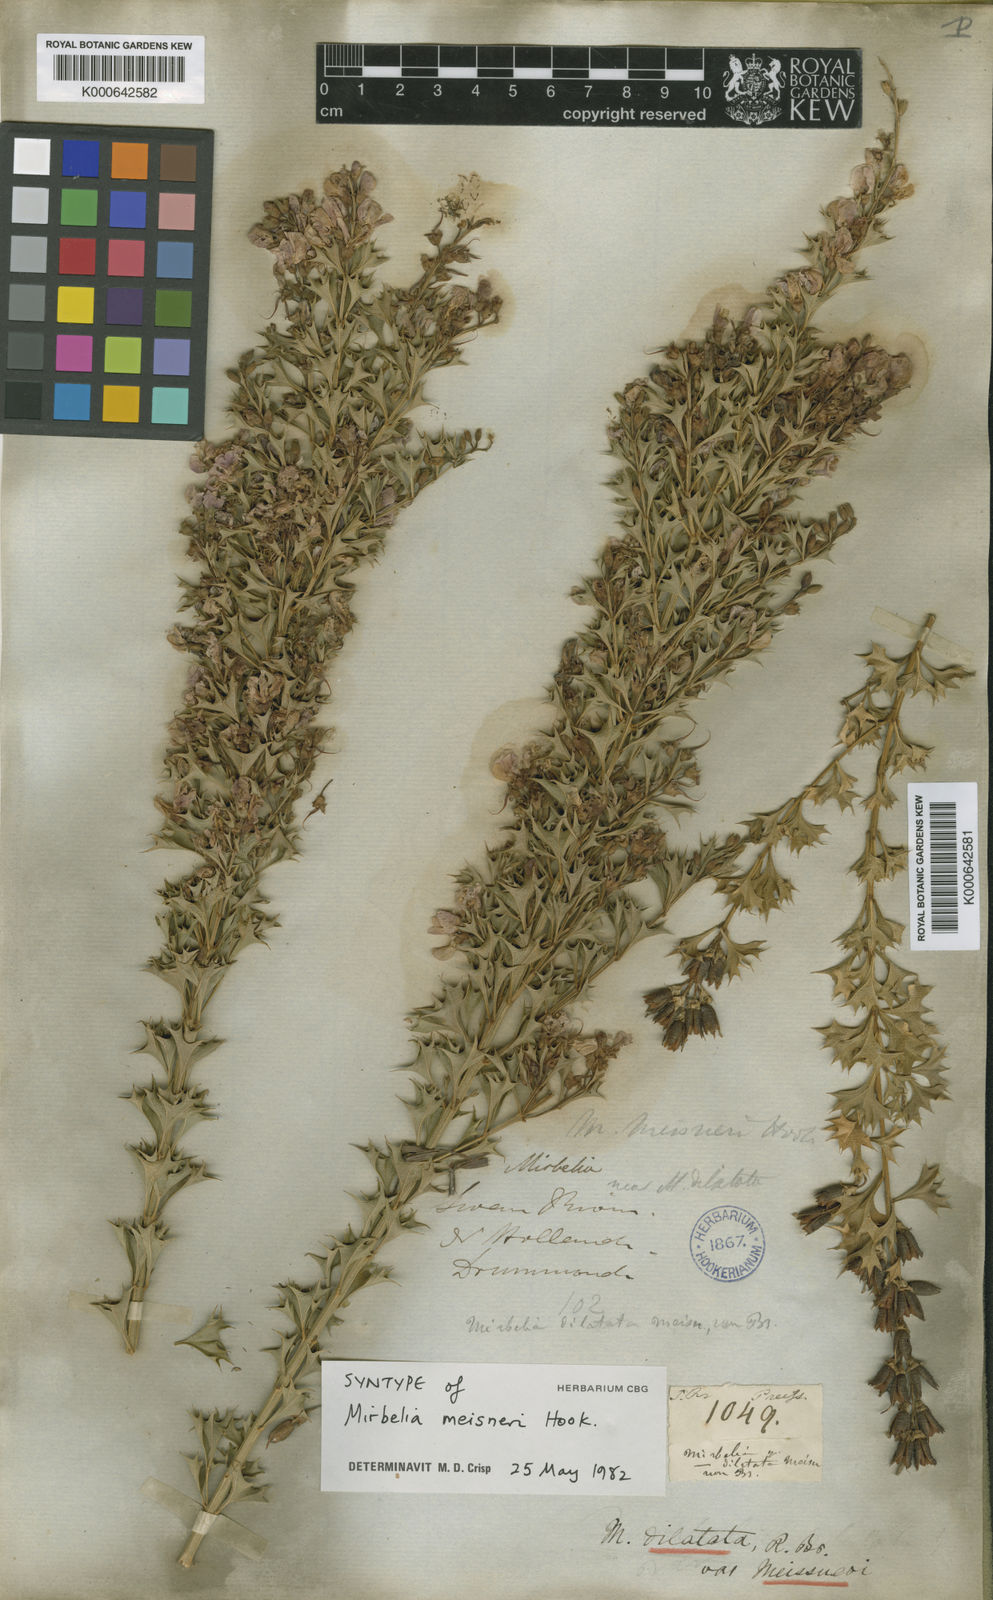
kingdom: Plantae
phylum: Tracheophyta
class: Magnoliopsida
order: Fabales
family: Fabaceae
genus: Mirbelia
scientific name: Mirbelia dilatata
